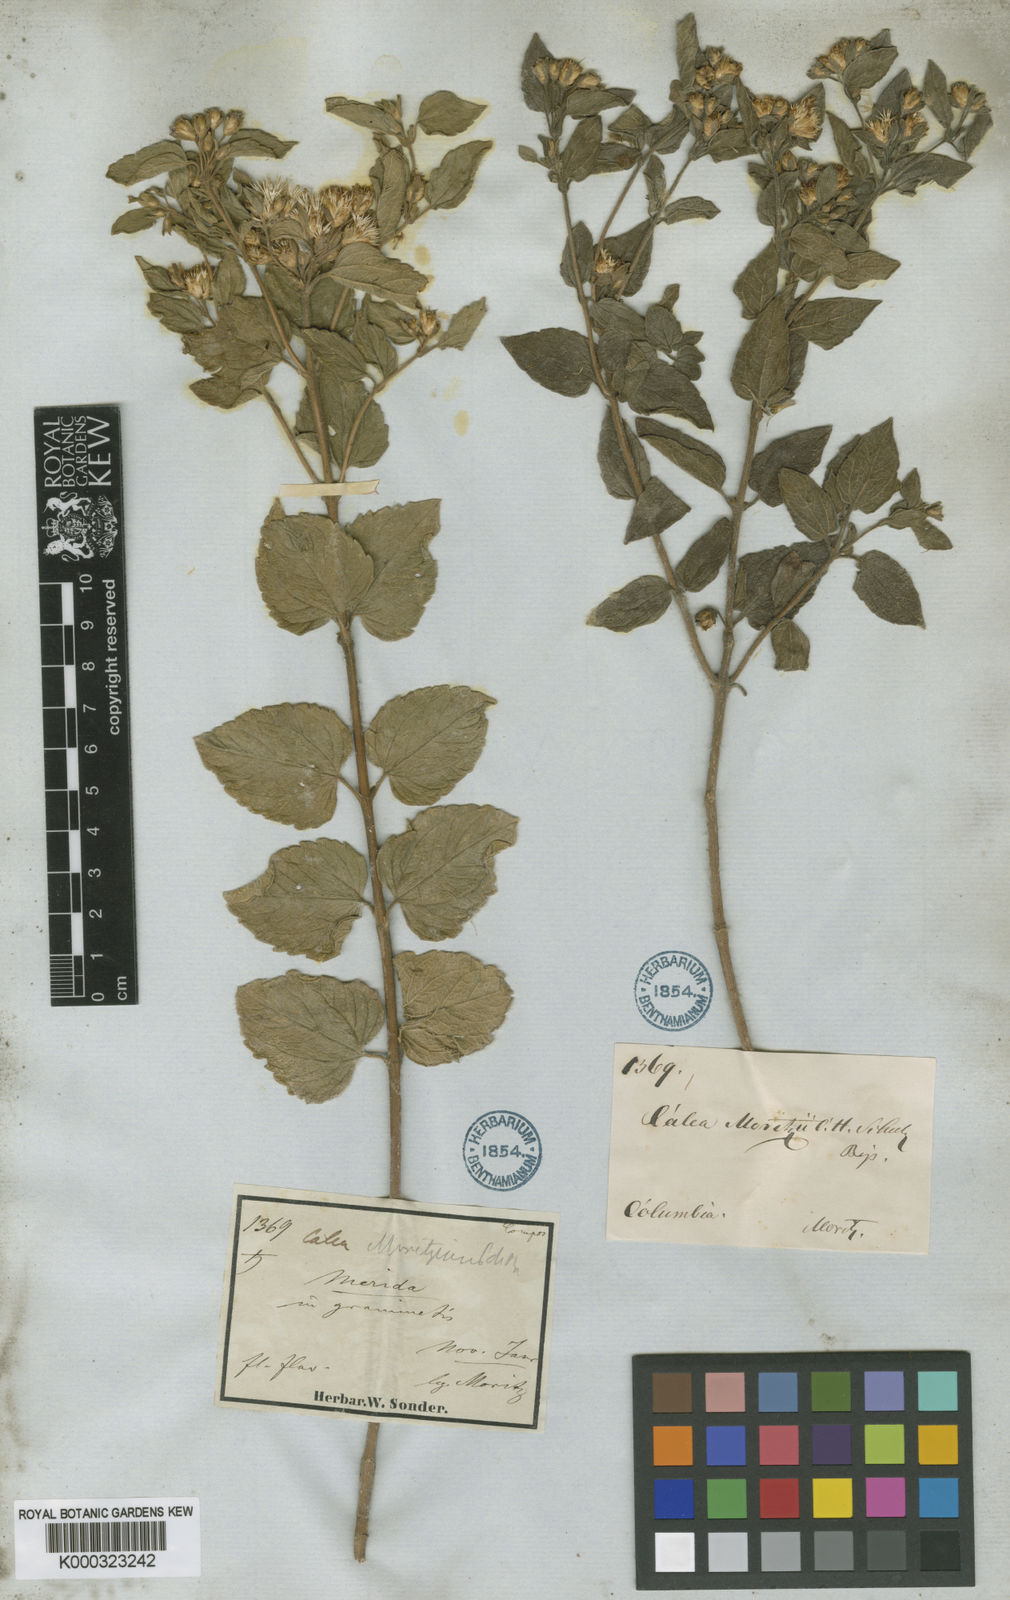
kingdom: Plantae
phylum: Tracheophyta
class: Magnoliopsida
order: Asterales
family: Asteraceae
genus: Calea
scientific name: Calea
